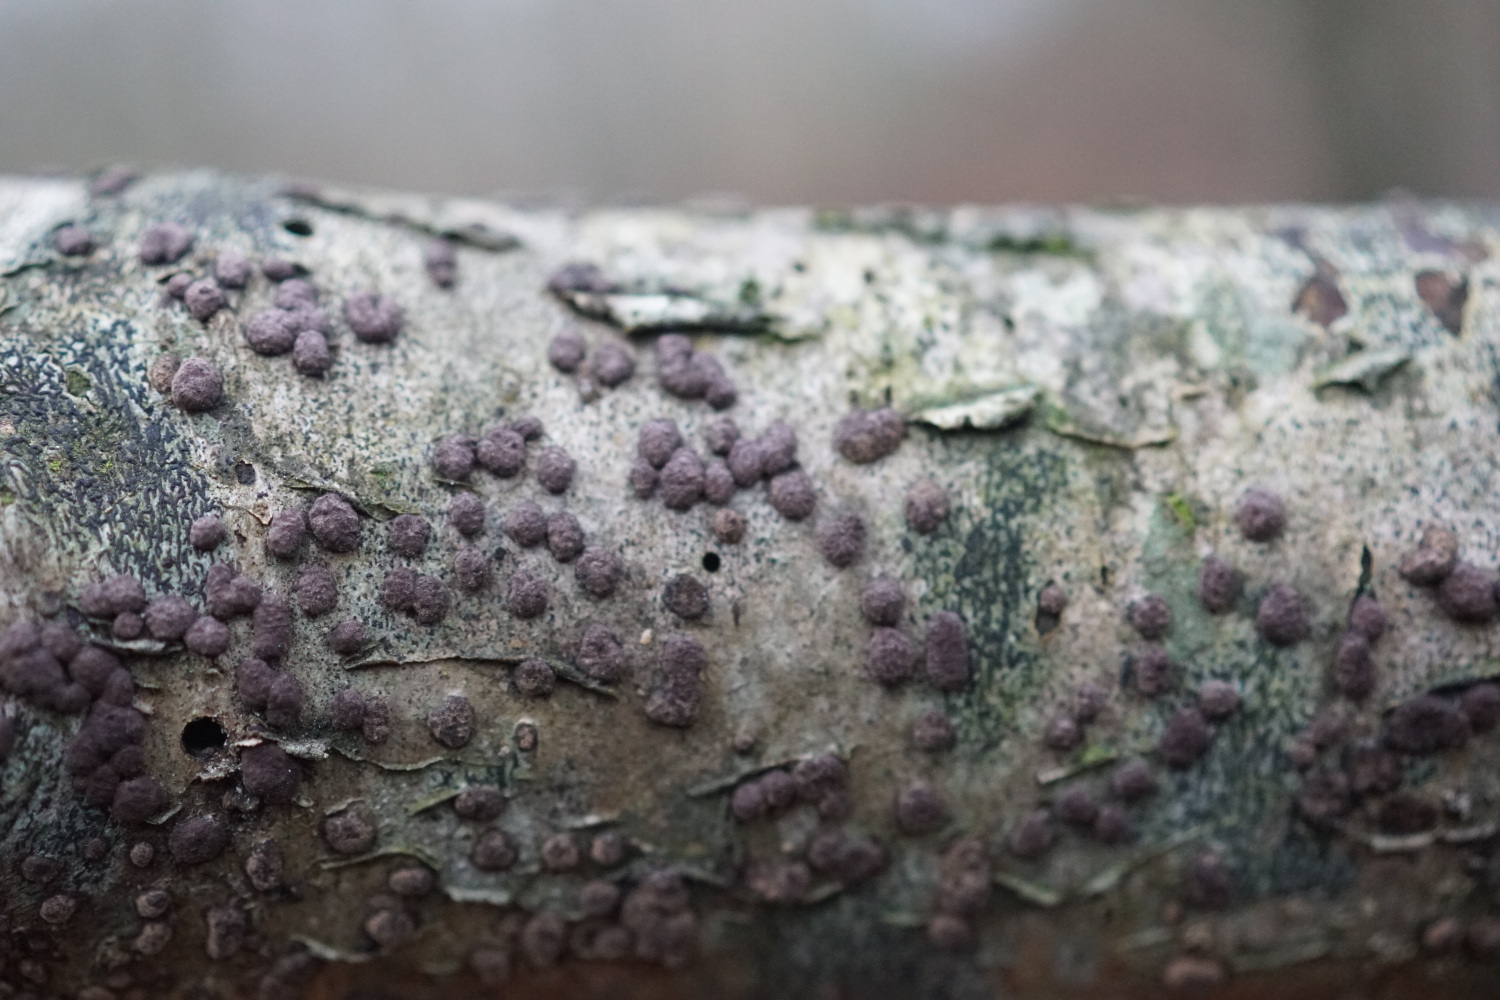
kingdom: Fungi
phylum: Ascomycota
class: Sordariomycetes
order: Xylariales
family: Hypoxylaceae
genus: Hypoxylon
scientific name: Hypoxylon fuscum
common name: kegleformet kulbær
